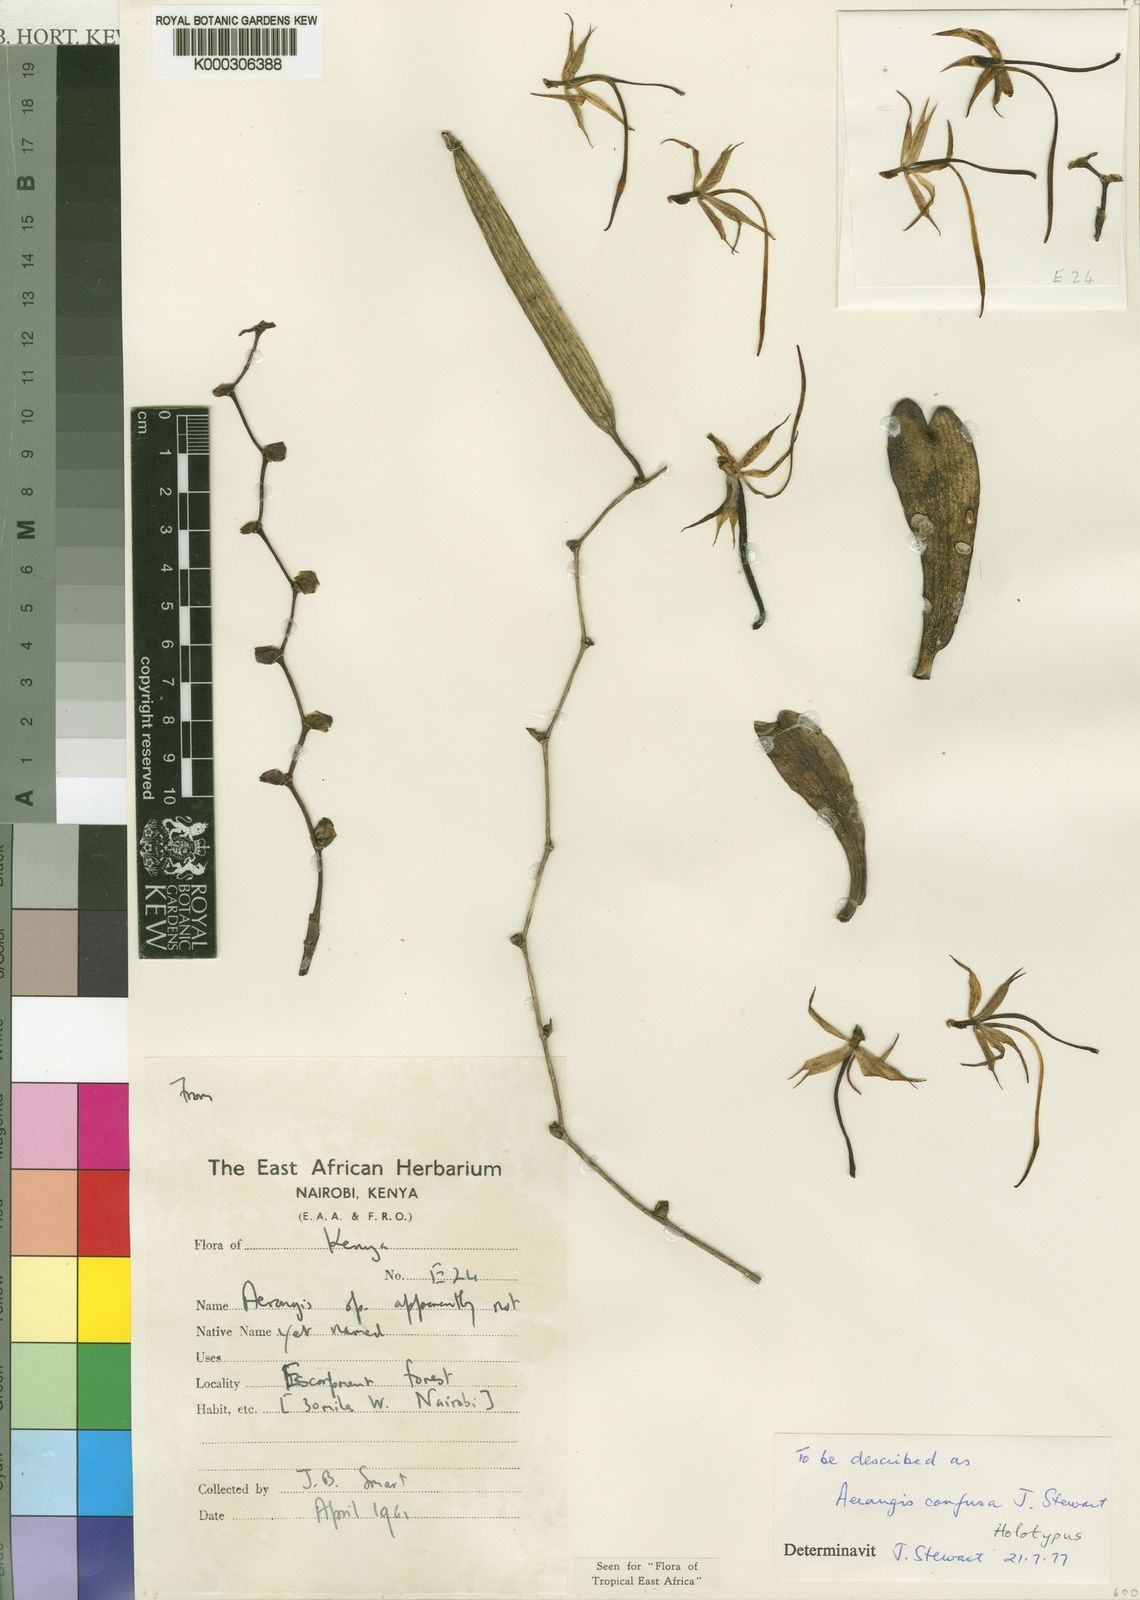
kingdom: Plantae
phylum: Tracheophyta
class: Liliopsida
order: Asparagales
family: Orchidaceae
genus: Aerangis
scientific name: Aerangis confusa
